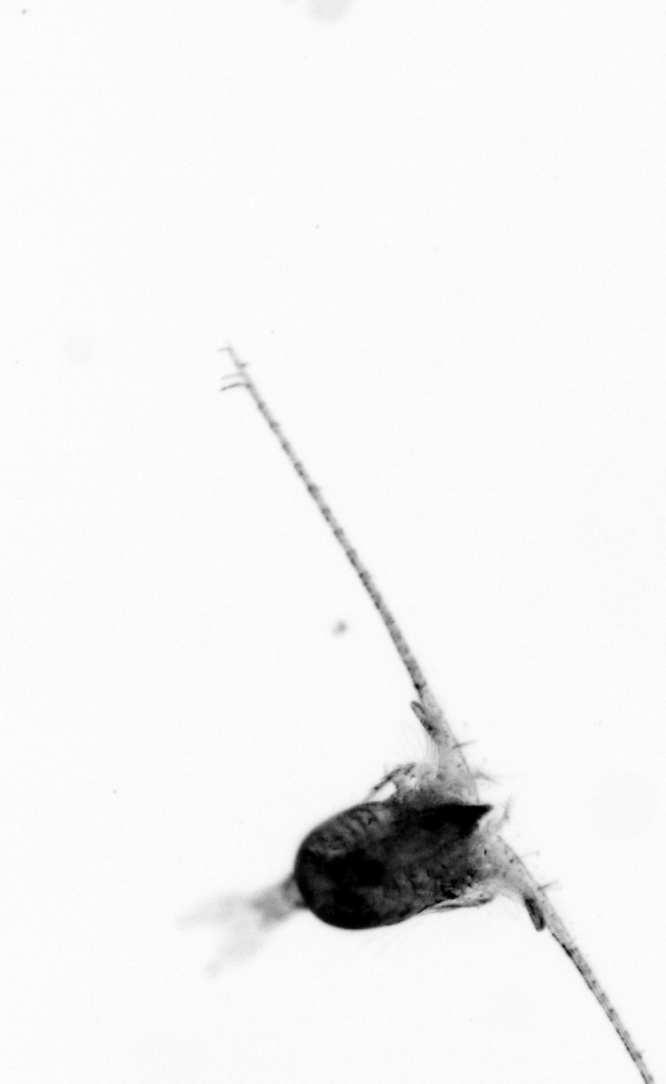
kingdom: Animalia
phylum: Arthropoda
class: Copepoda
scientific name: Copepoda
